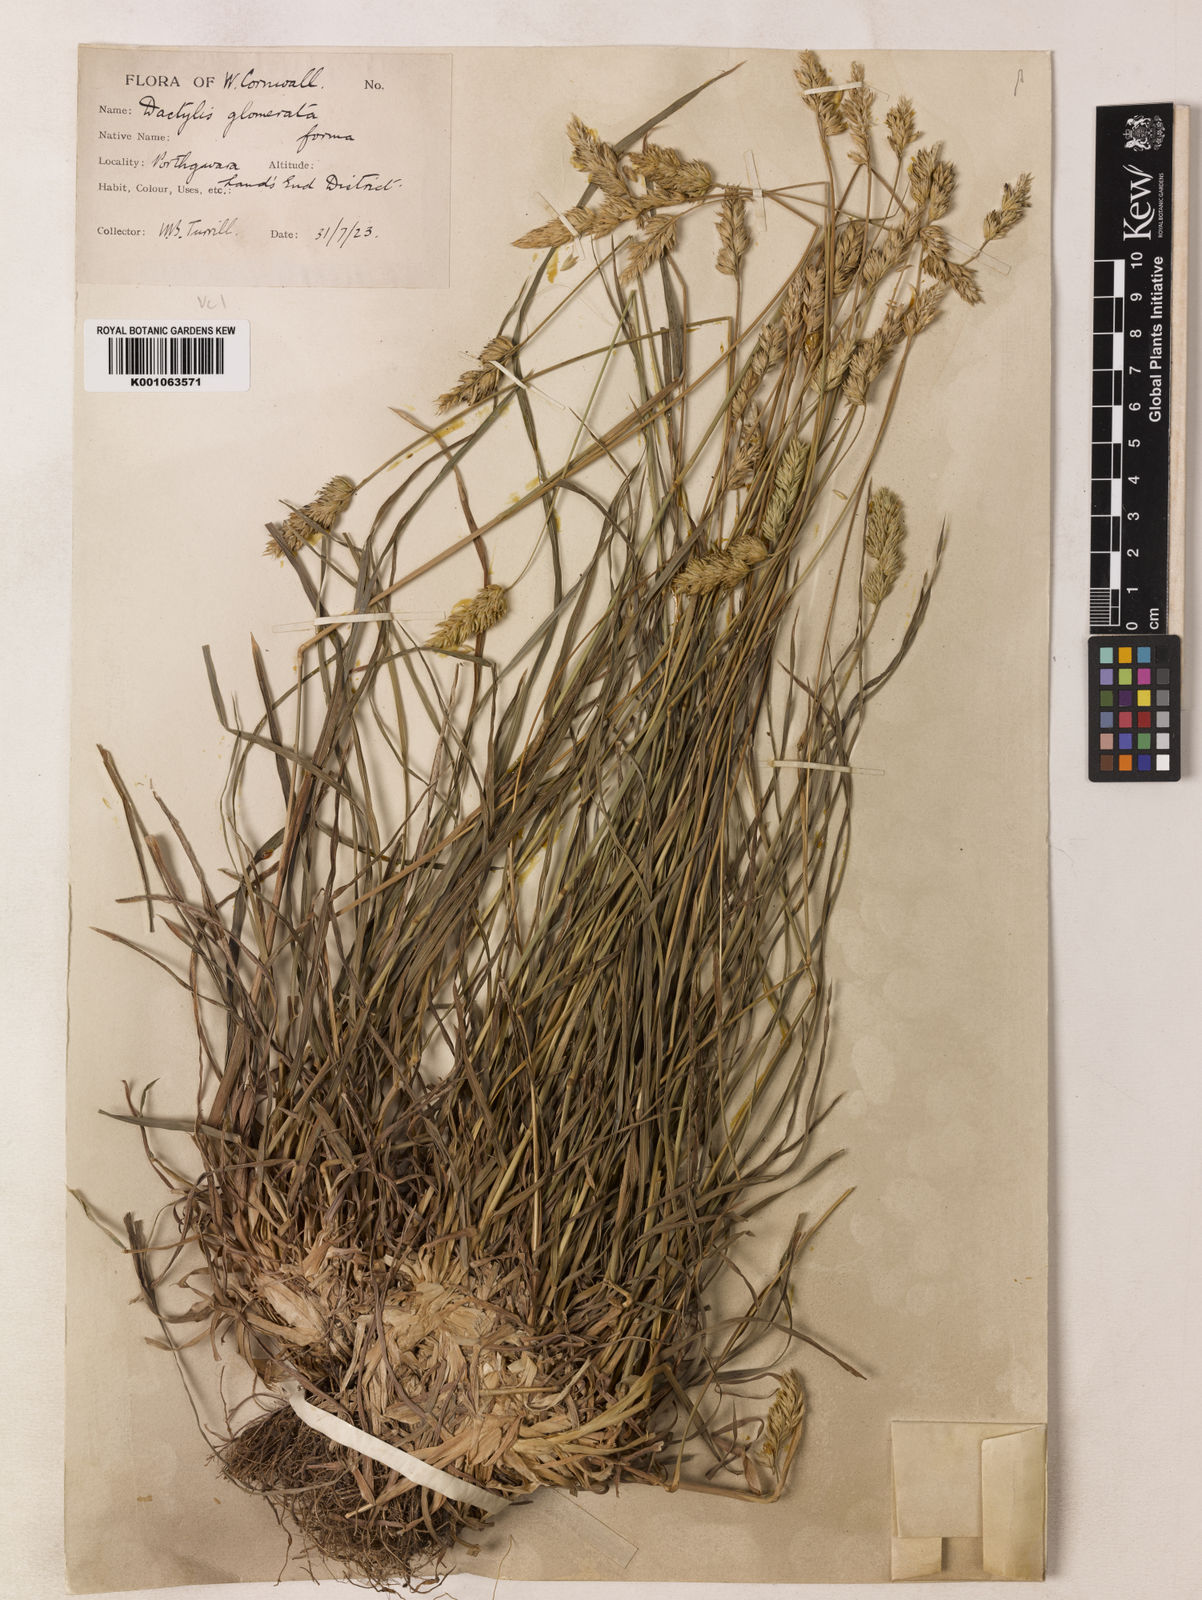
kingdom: Plantae
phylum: Tracheophyta
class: Liliopsida
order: Poales
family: Poaceae
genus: Dactylis
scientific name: Dactylis glomerata
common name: Orchardgrass
